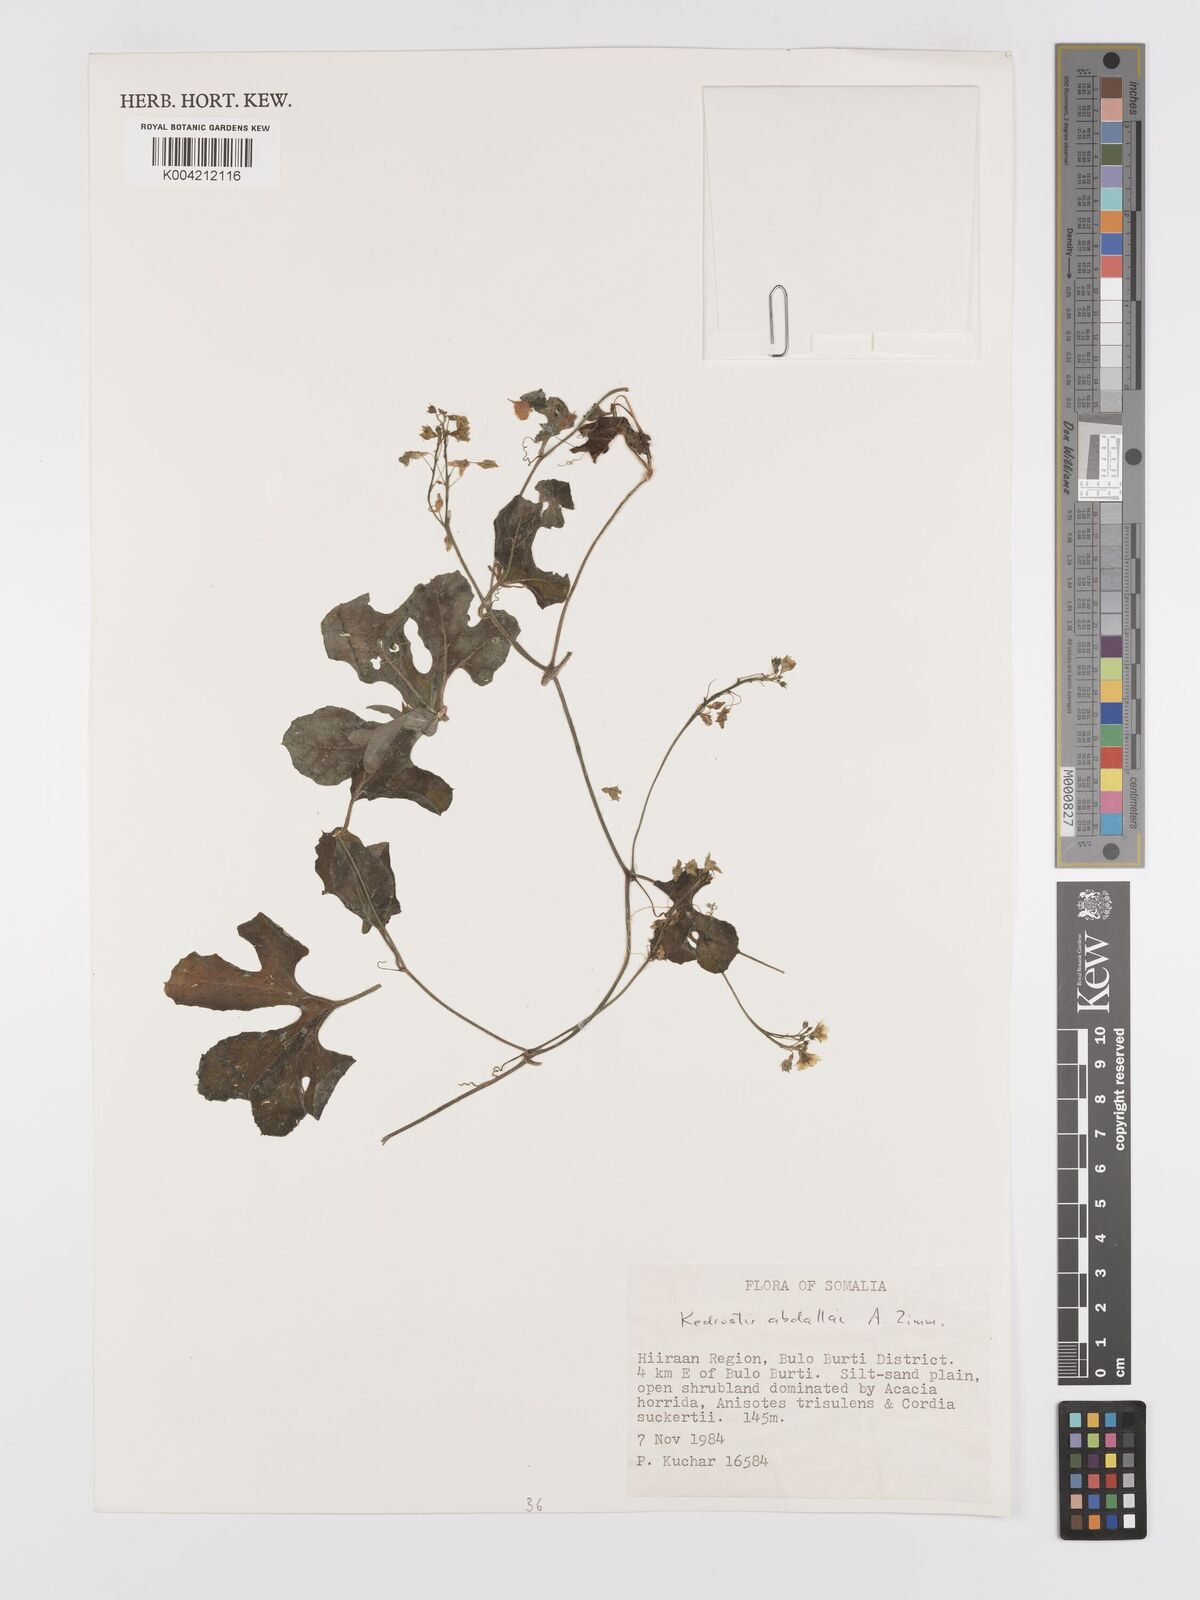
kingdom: Plantae
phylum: Tracheophyta
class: Magnoliopsida
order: Cucurbitales
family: Cucurbitaceae
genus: Kedrostis
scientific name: Kedrostis abdallae
